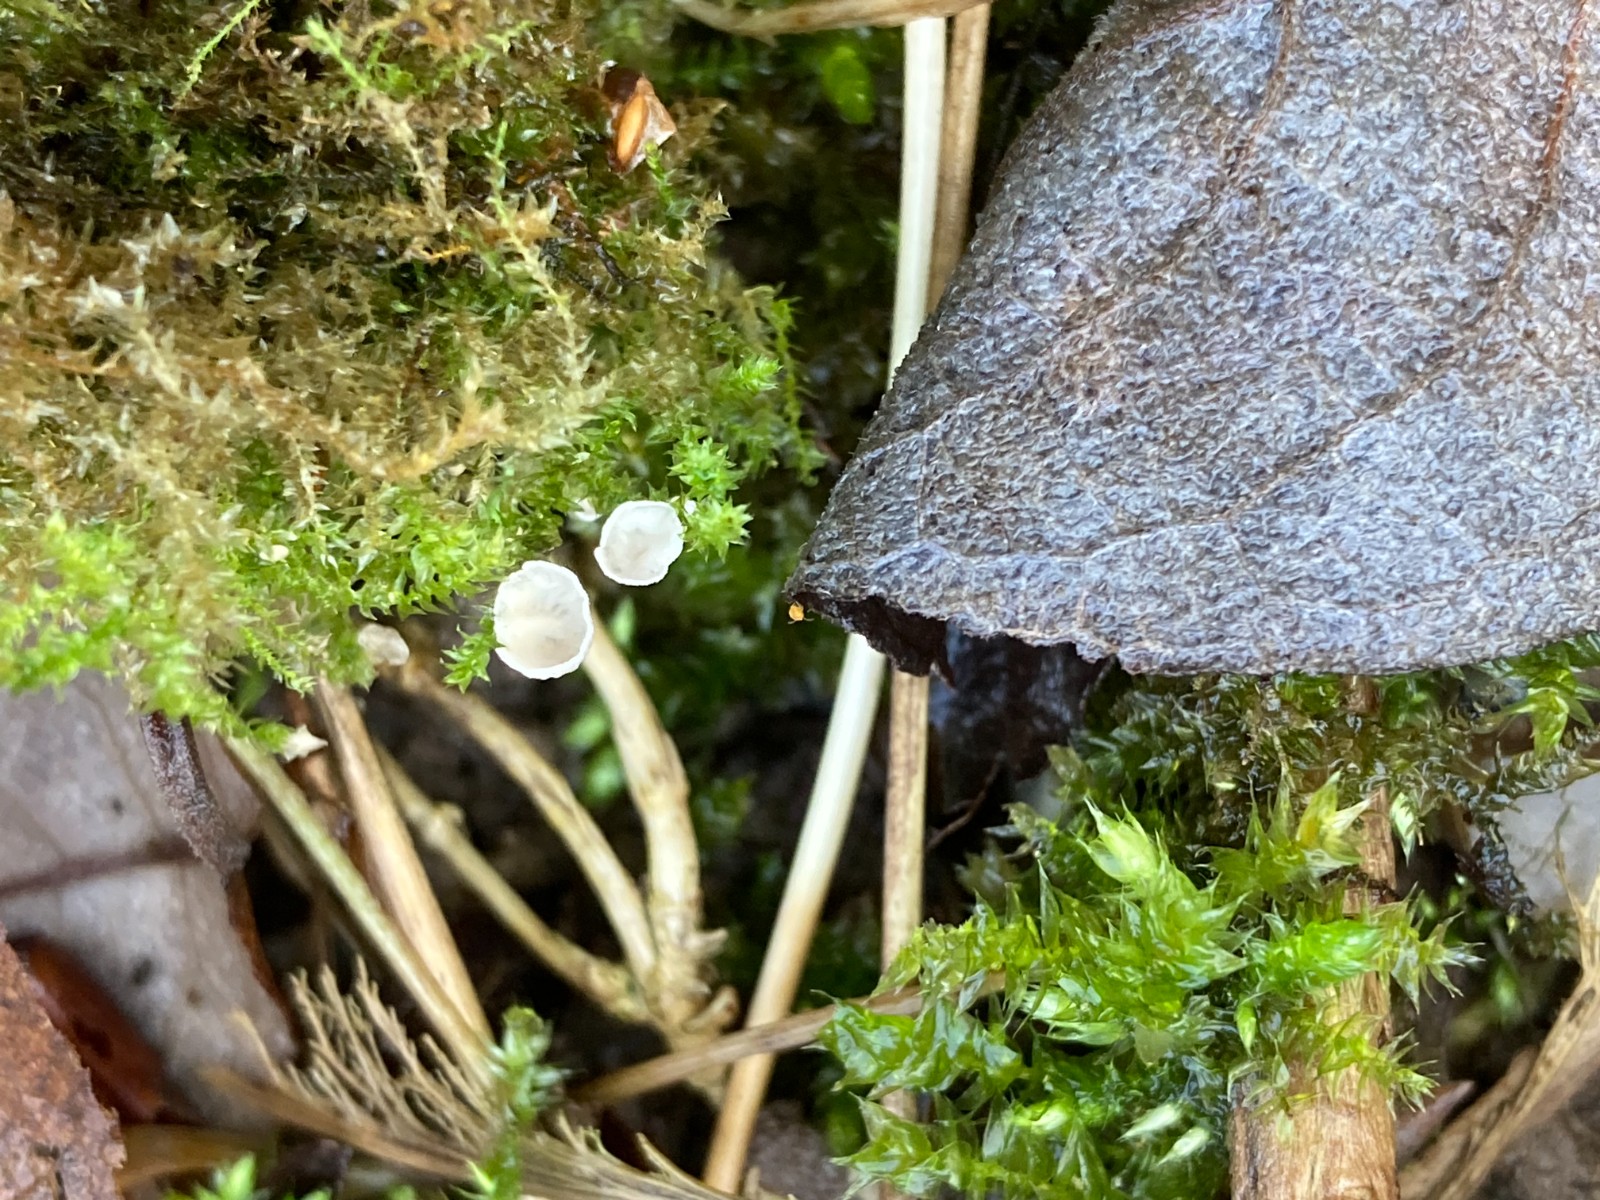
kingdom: Fungi
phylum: Basidiomycota
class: Agaricomycetes
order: Agaricales
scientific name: Agaricales
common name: champignonordenen
